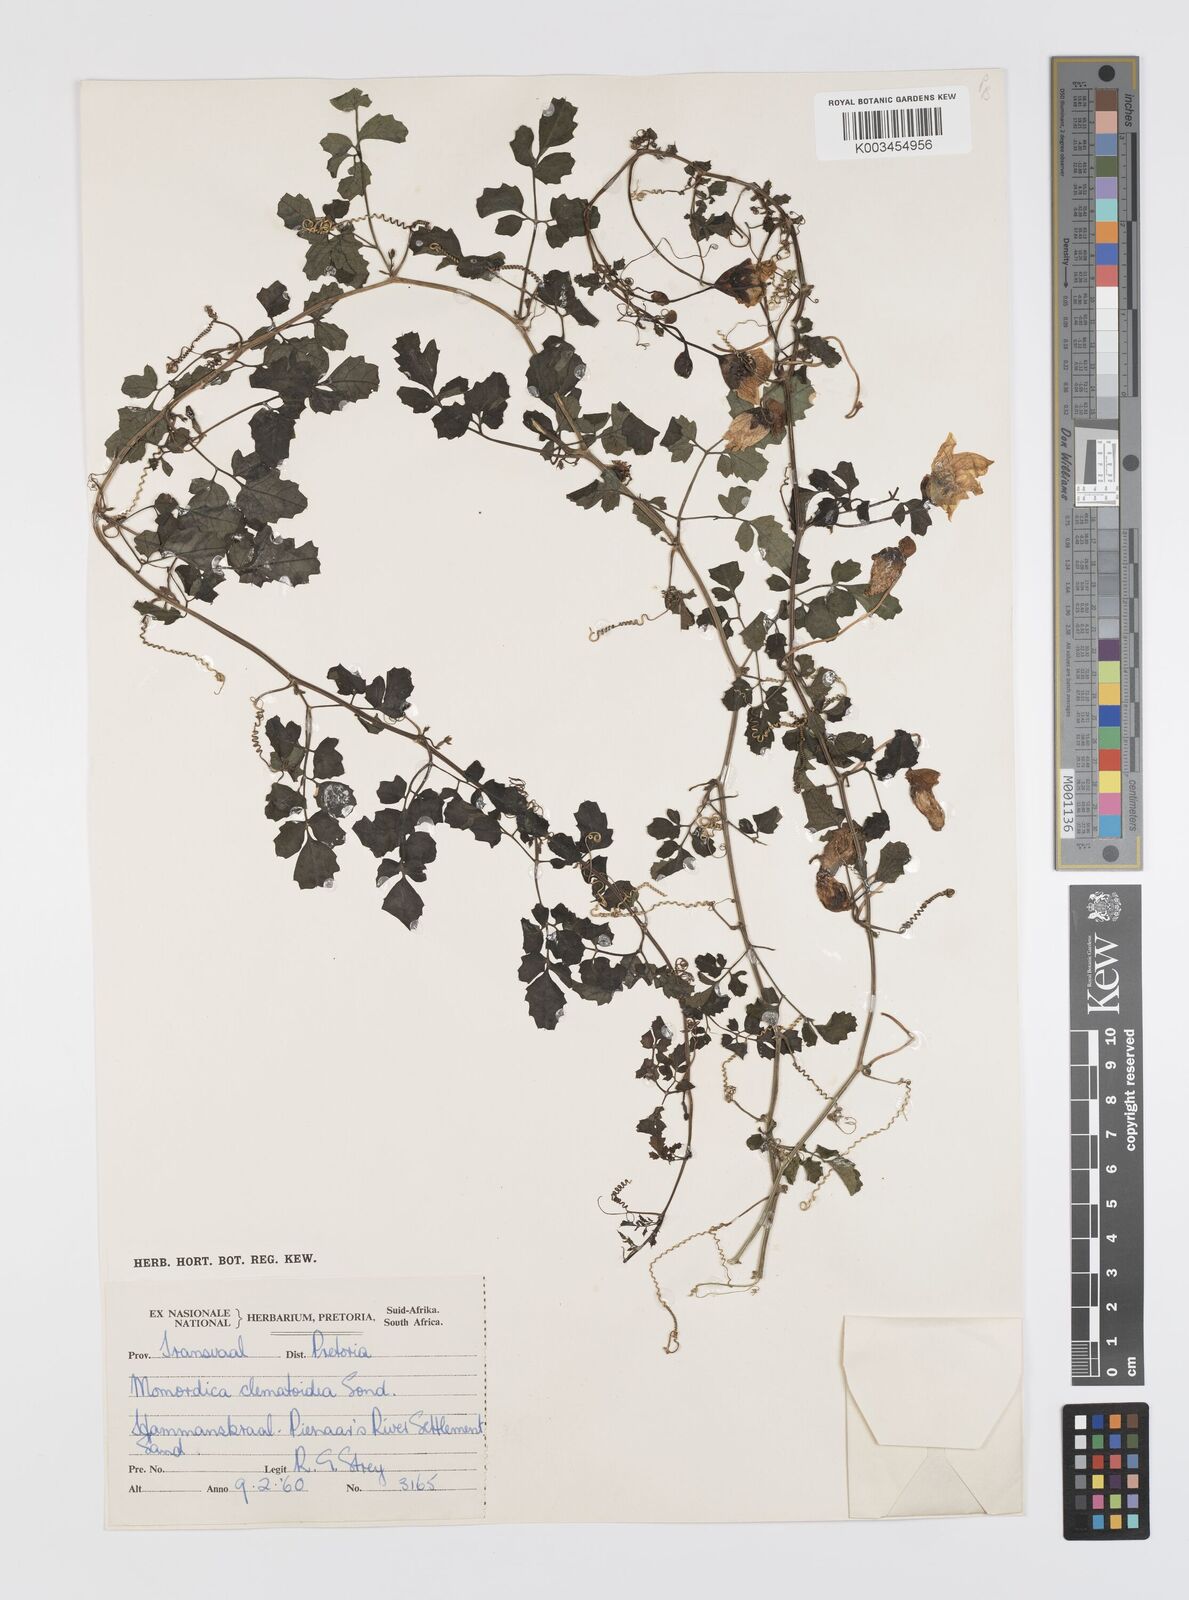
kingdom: Plantae
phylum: Tracheophyta
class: Magnoliopsida
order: Cucurbitales
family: Cucurbitaceae
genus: Momordica
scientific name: Momordica cardiospermoides
